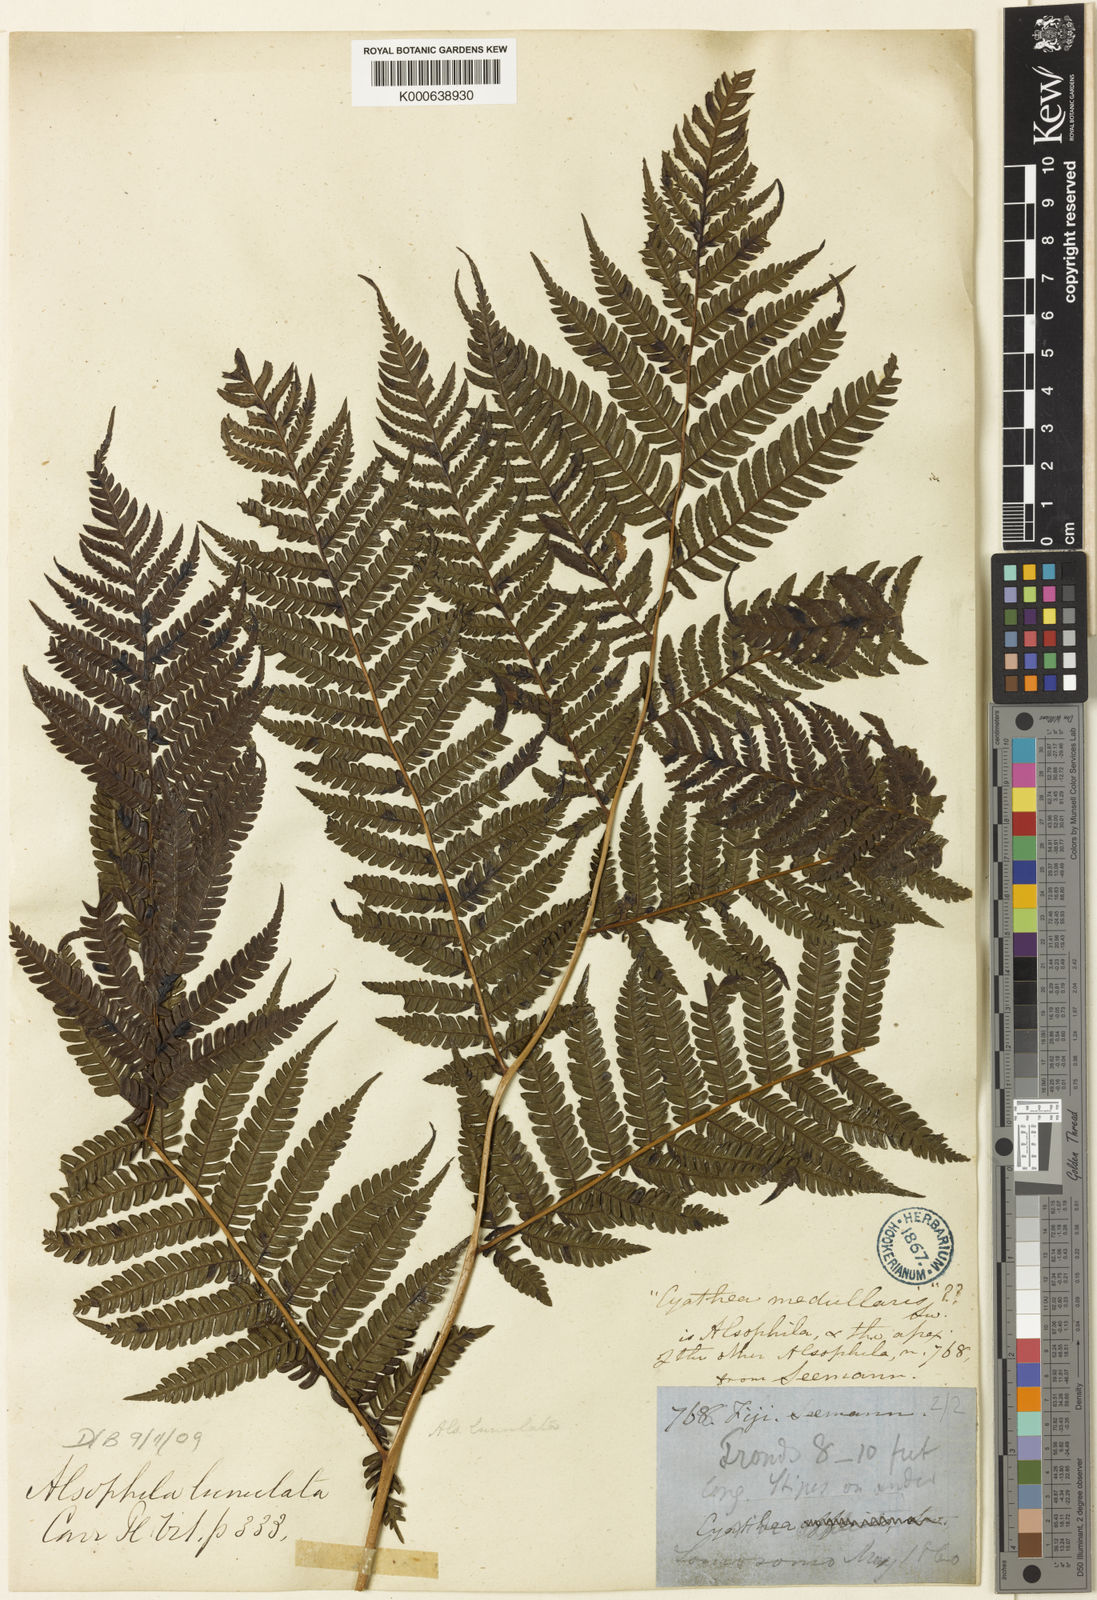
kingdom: Plantae
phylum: Tracheophyta
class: Polypodiopsida
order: Cyatheales
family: Cyatheaceae
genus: Sphaeropteris
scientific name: Sphaeropteris lunulata
